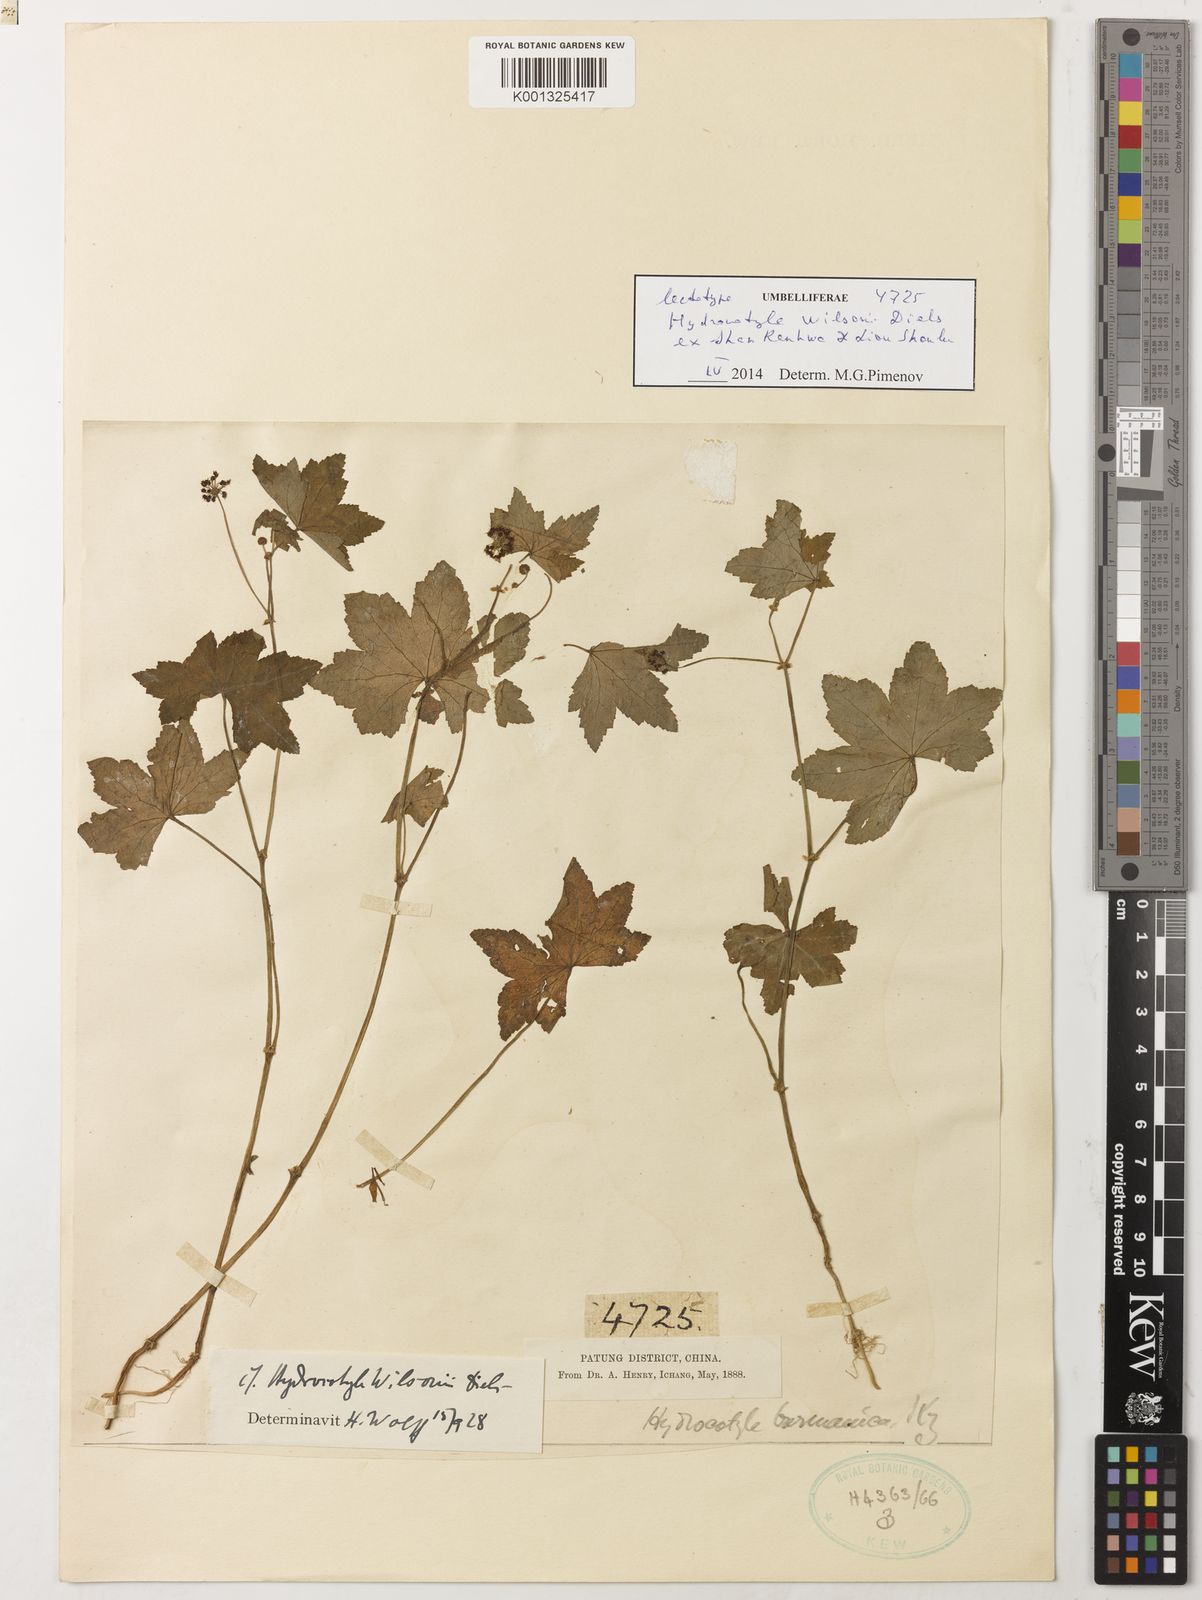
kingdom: Plantae
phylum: Tracheophyta
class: Magnoliopsida
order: Apiales
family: Araliaceae
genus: Hydrocotyle
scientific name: Hydrocotyle wilsonii
